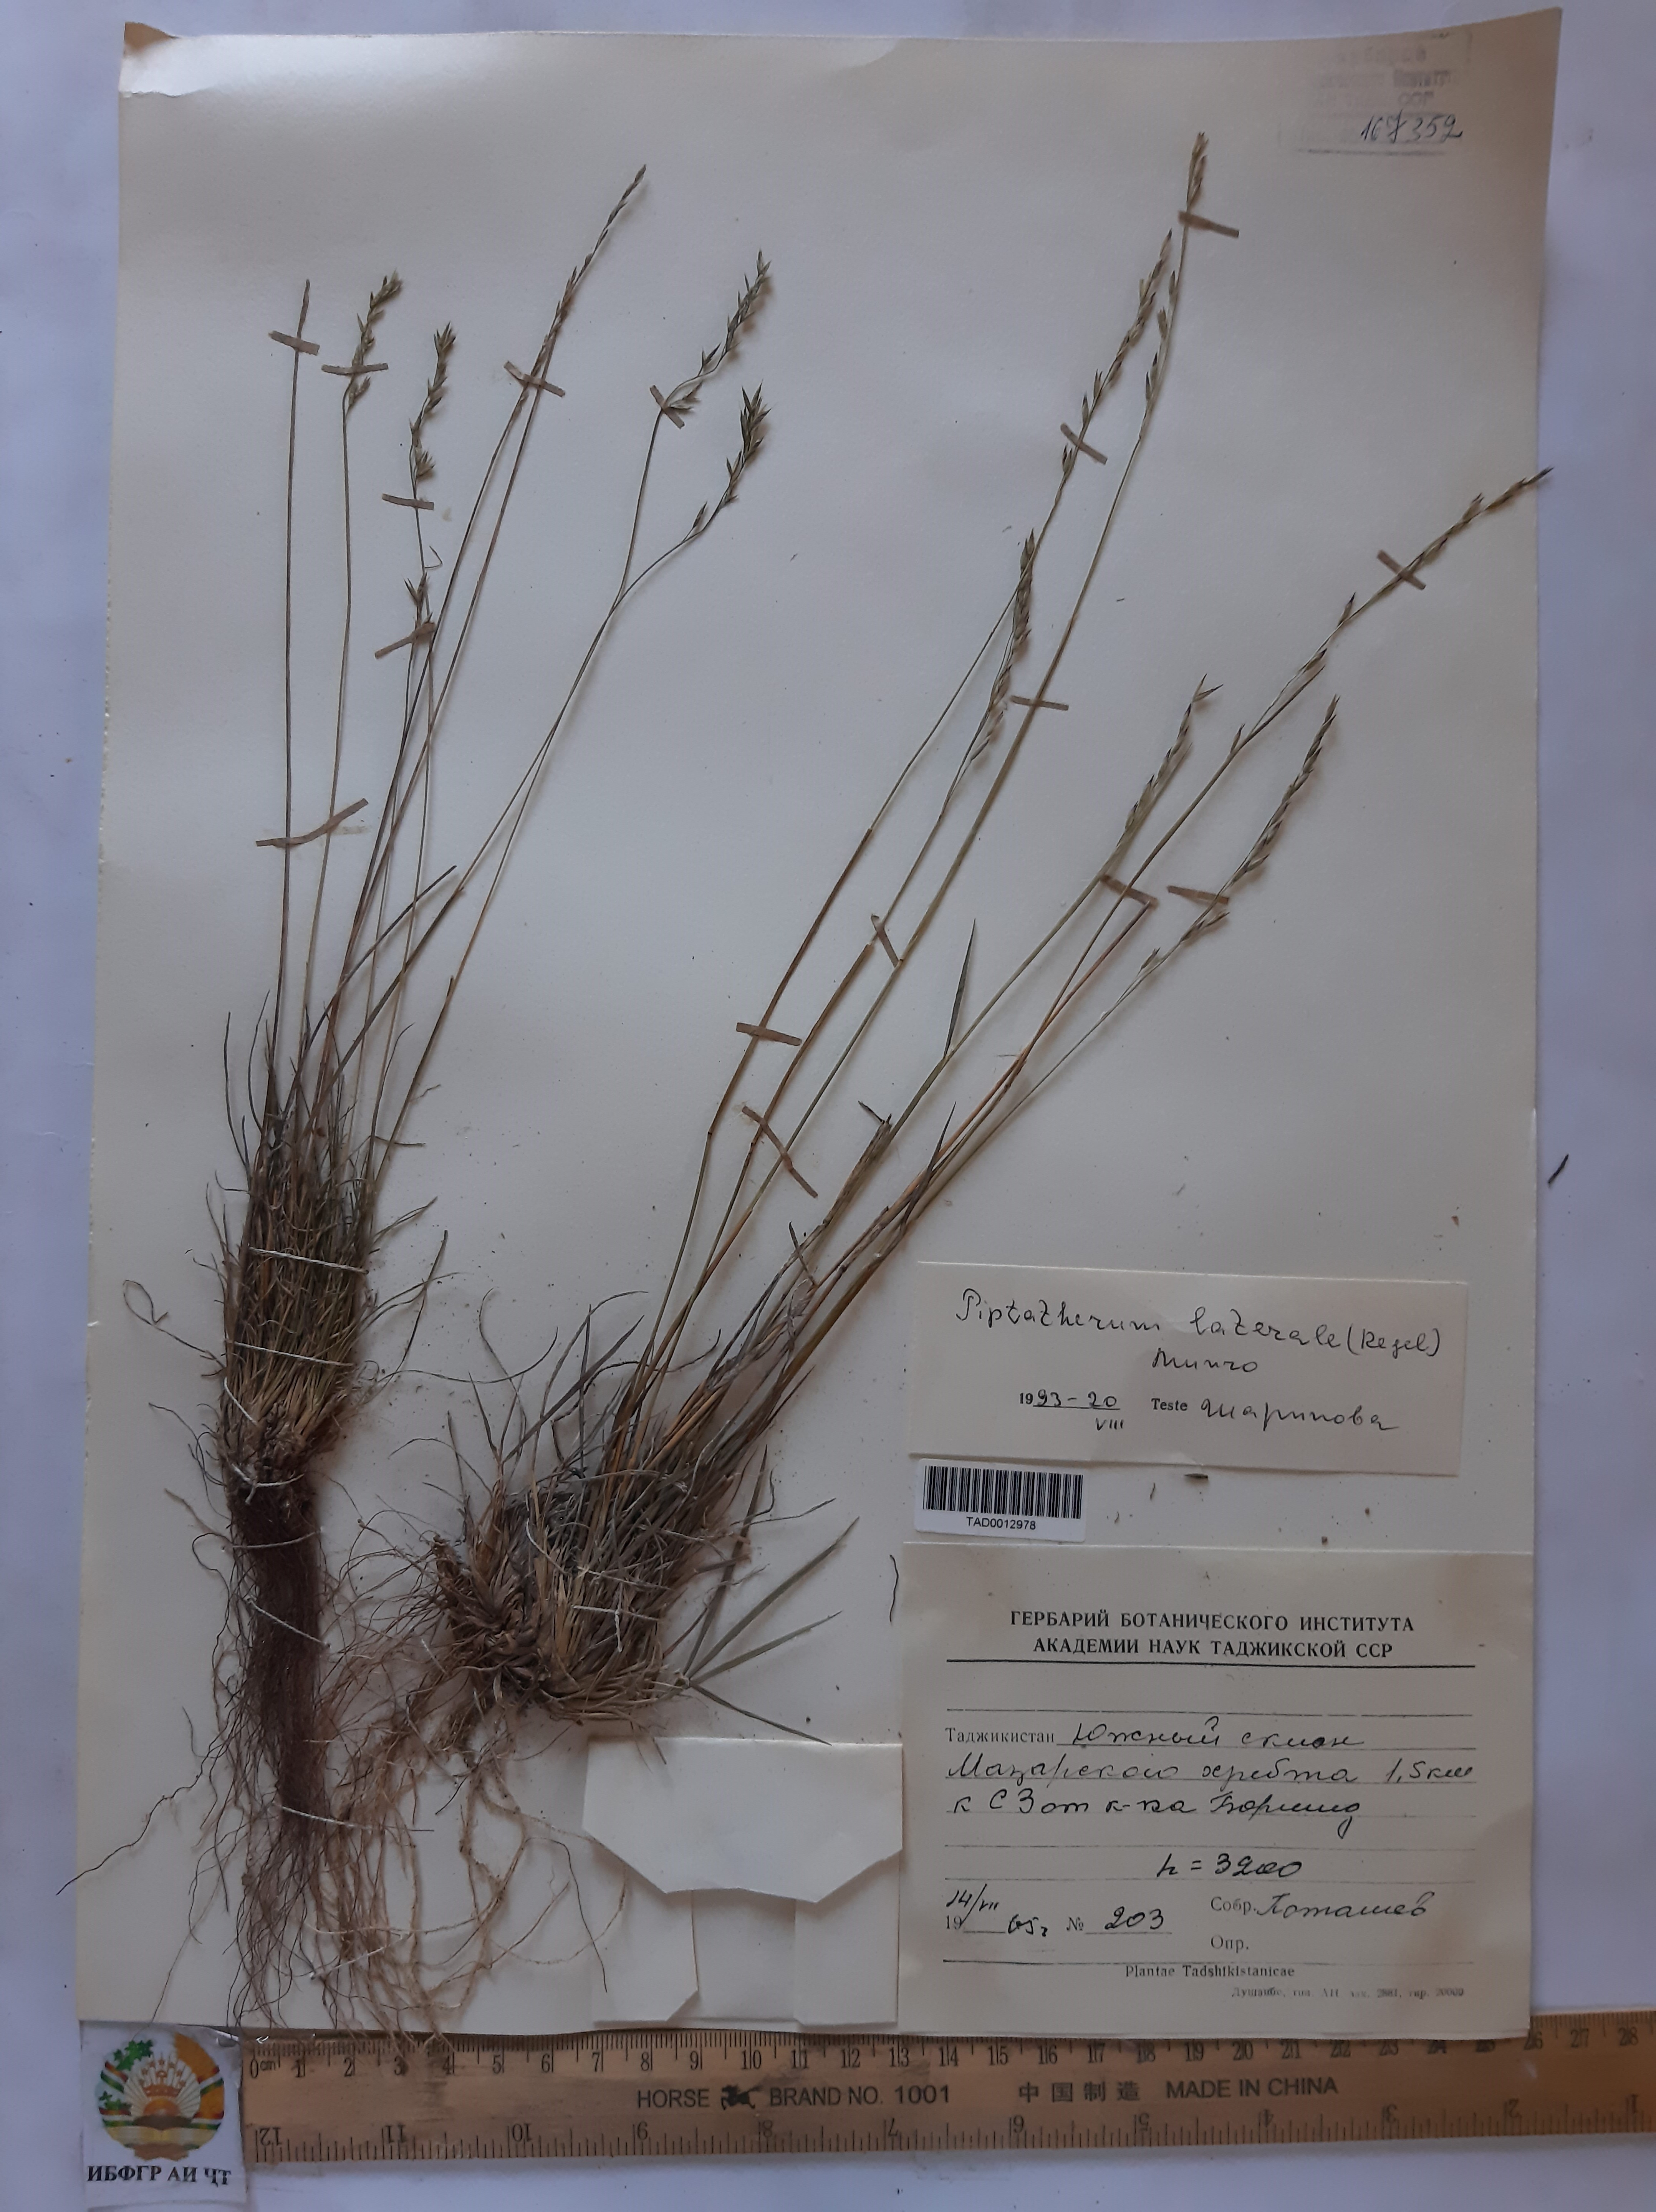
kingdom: Plantae
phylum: Tracheophyta
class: Liliopsida
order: Poales
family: Poaceae
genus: Piptatherum
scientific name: Piptatherum laterale
